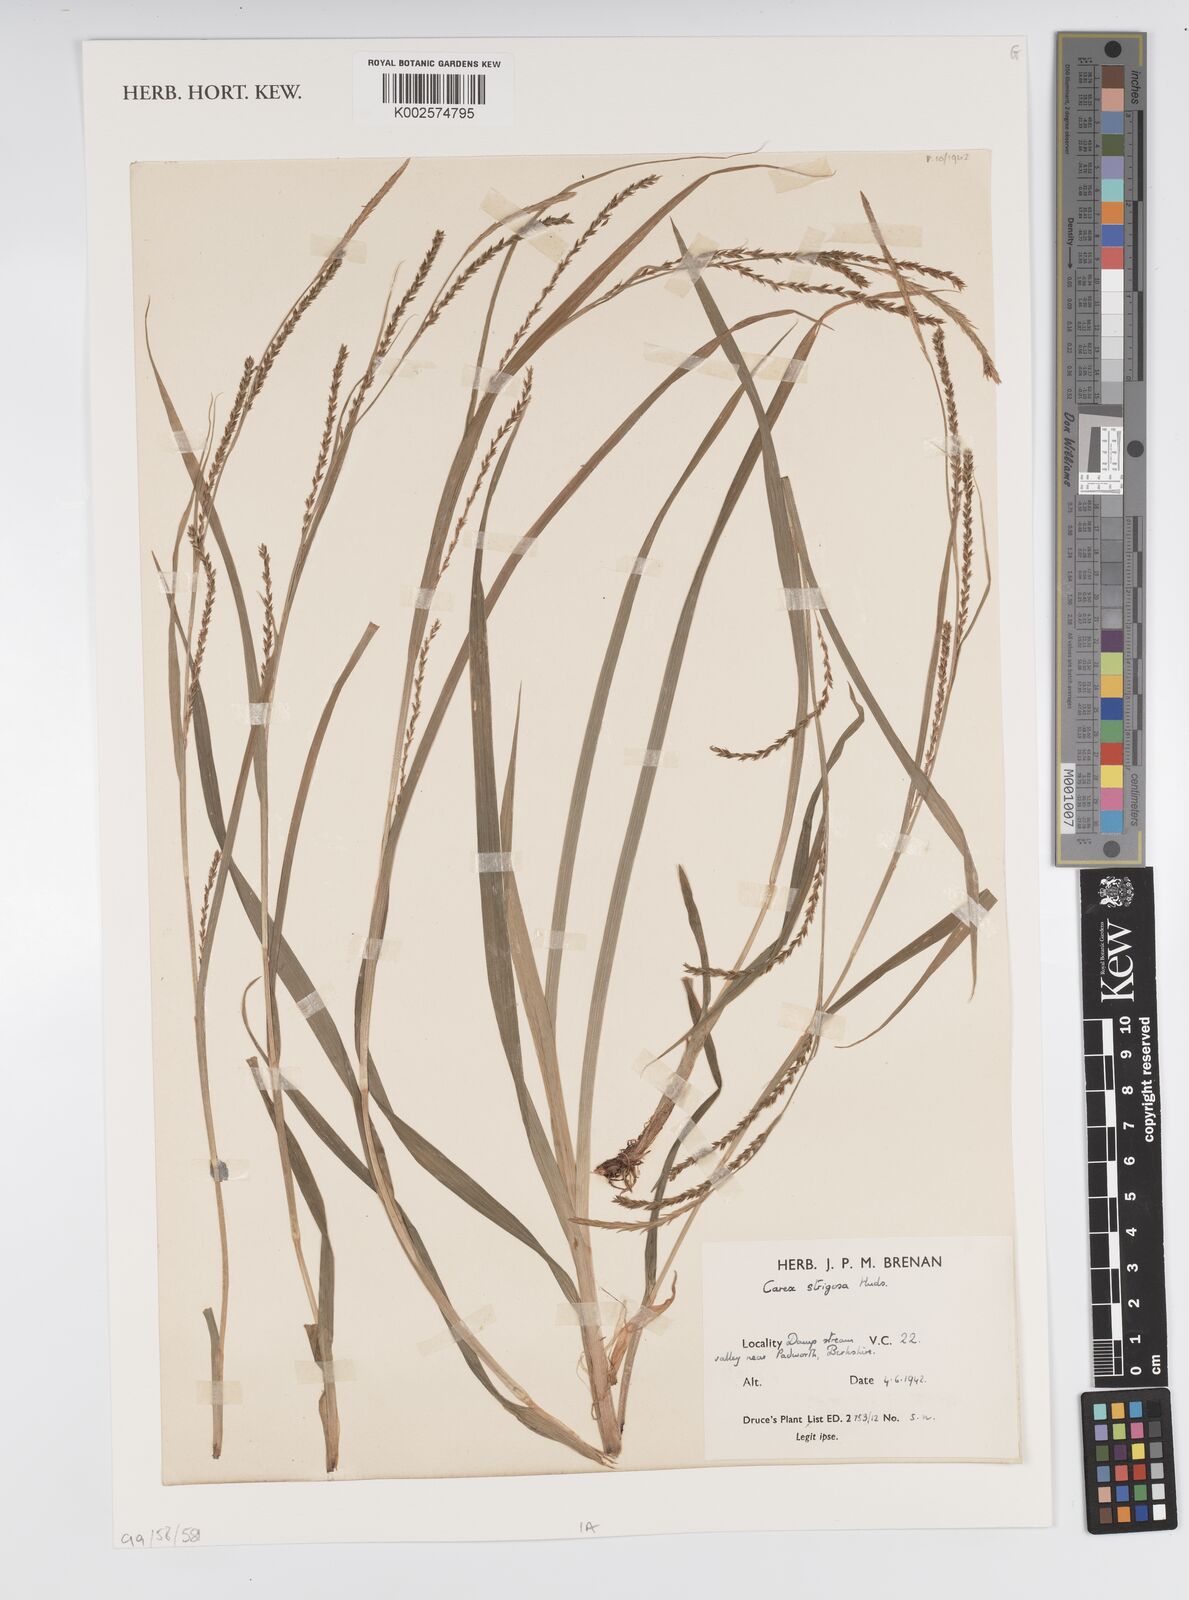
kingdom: Plantae
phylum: Tracheophyta
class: Liliopsida
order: Poales
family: Cyperaceae
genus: Carex
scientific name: Carex strigosa
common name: Thin-spiked wood-sedge
